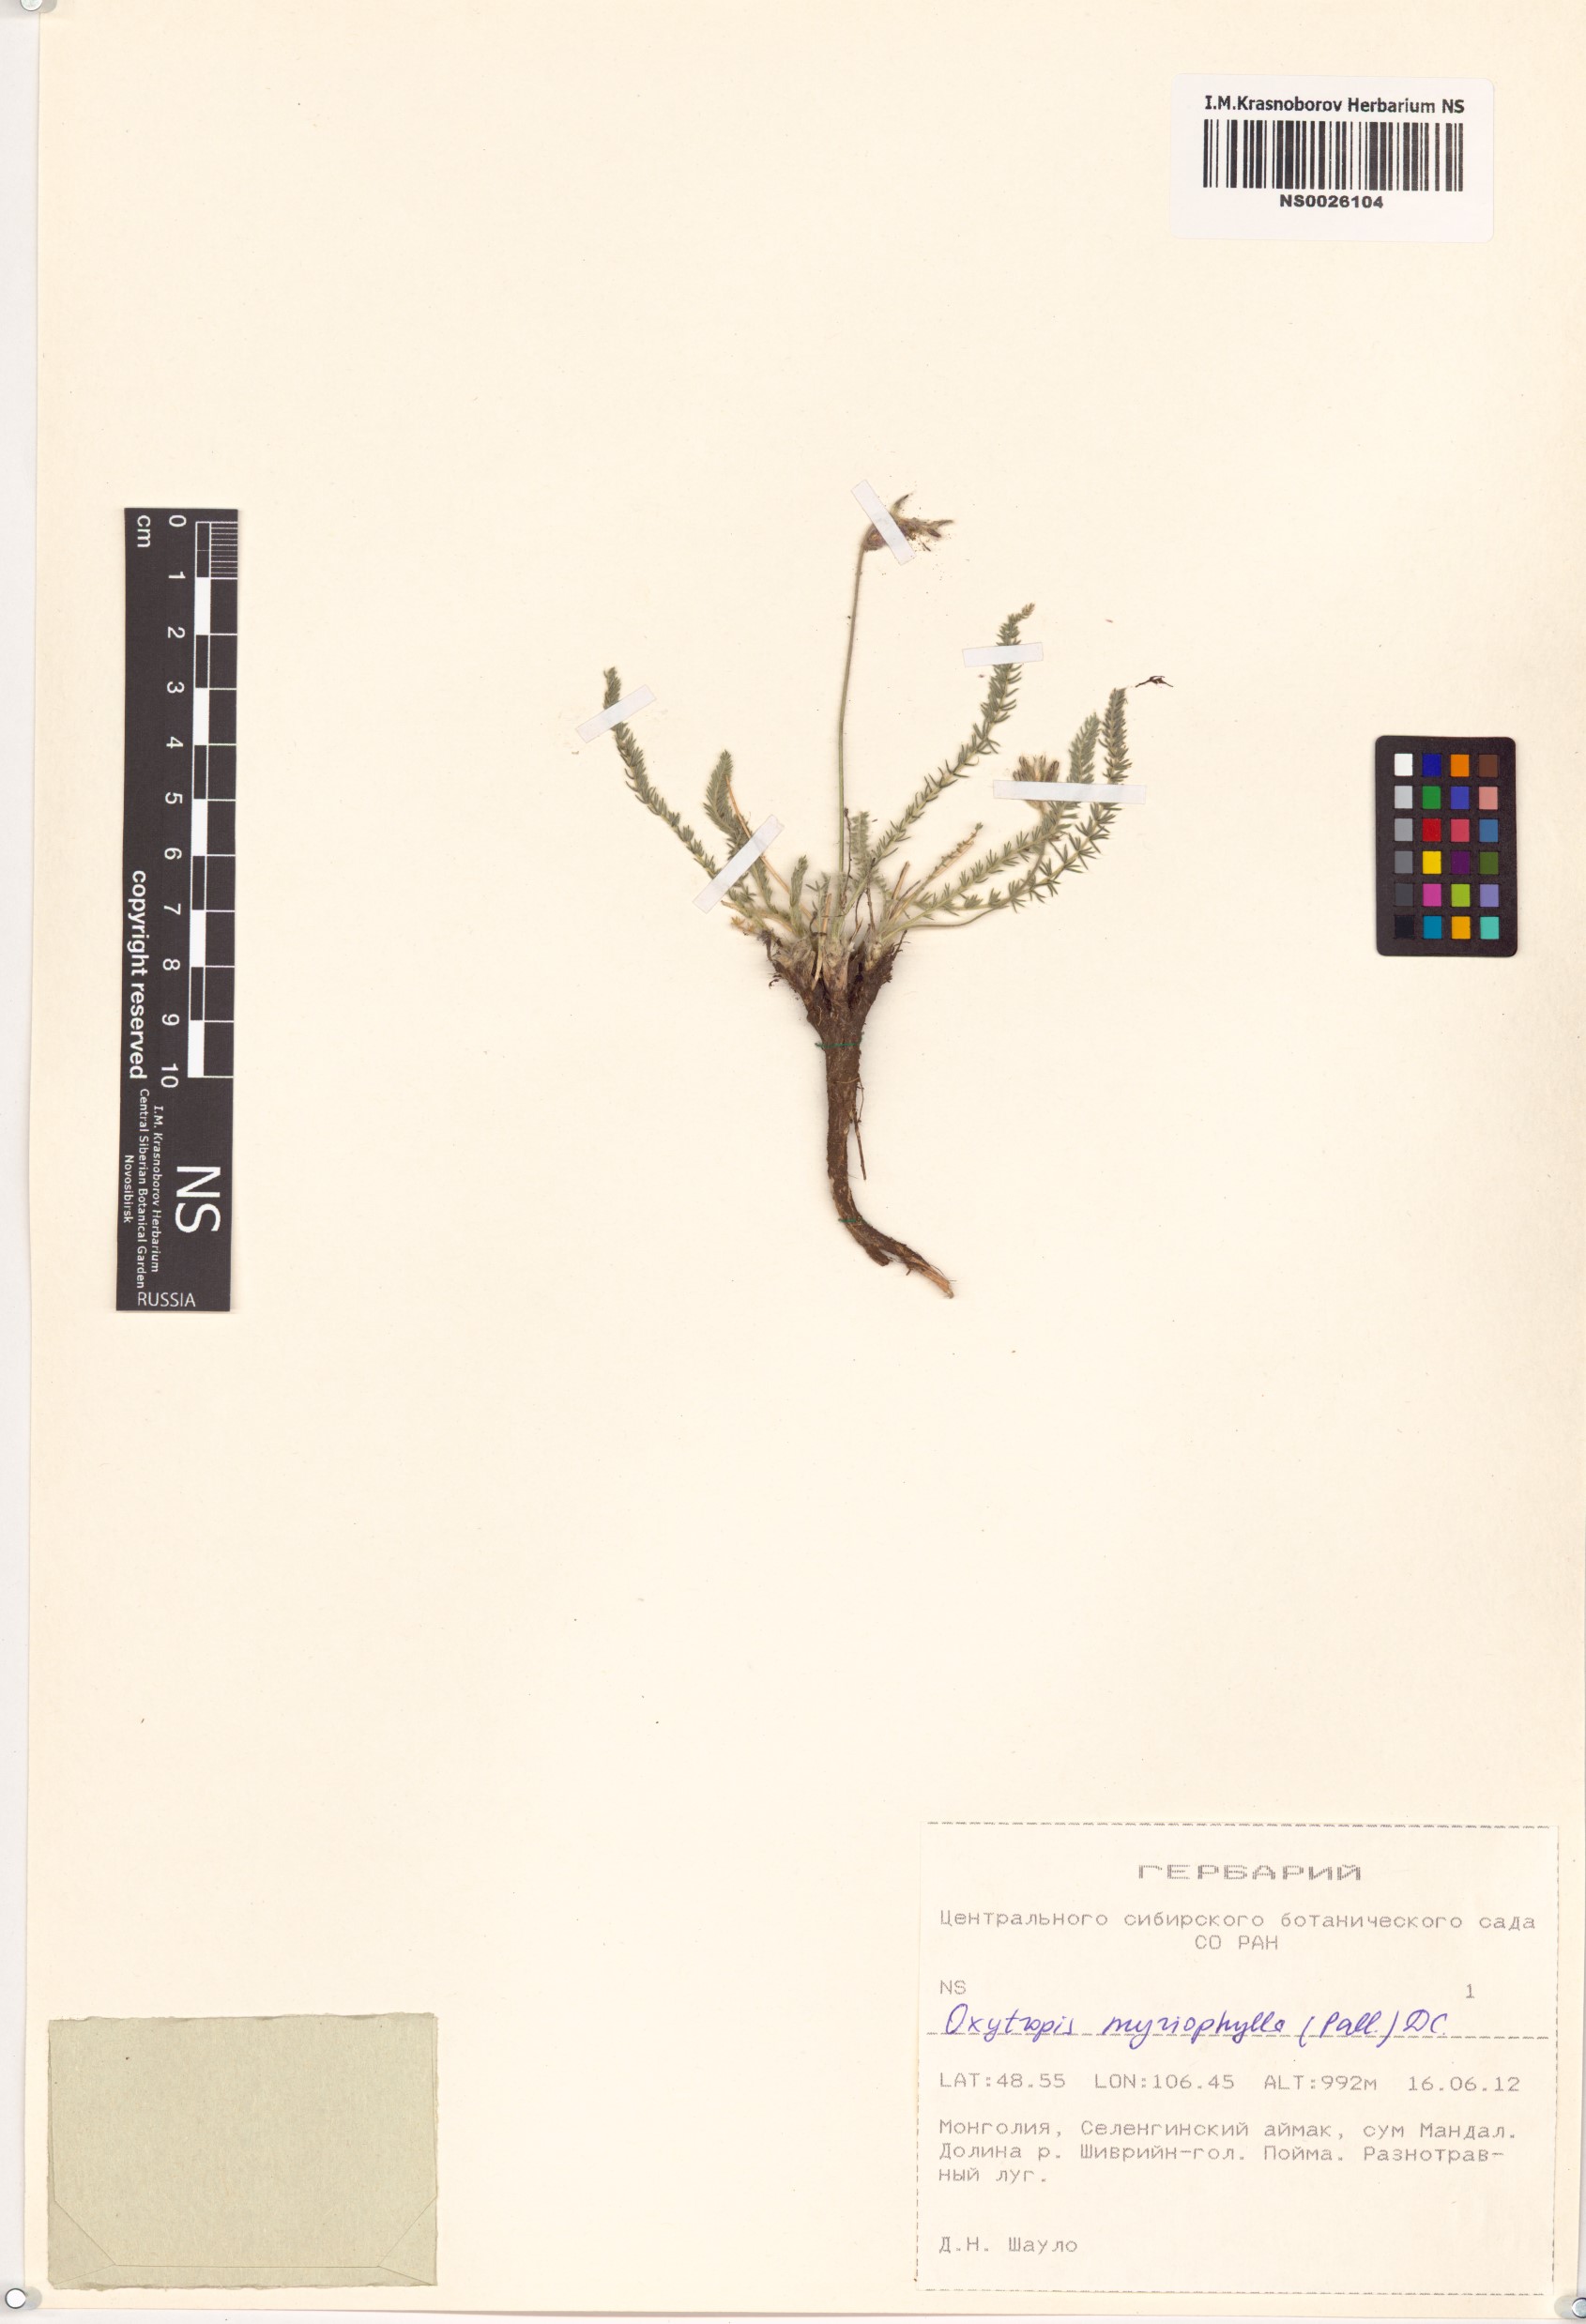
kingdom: Plantae
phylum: Tracheophyta
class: Magnoliopsida
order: Fabales
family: Fabaceae
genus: Oxytropis
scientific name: Oxytropis myriophylla
